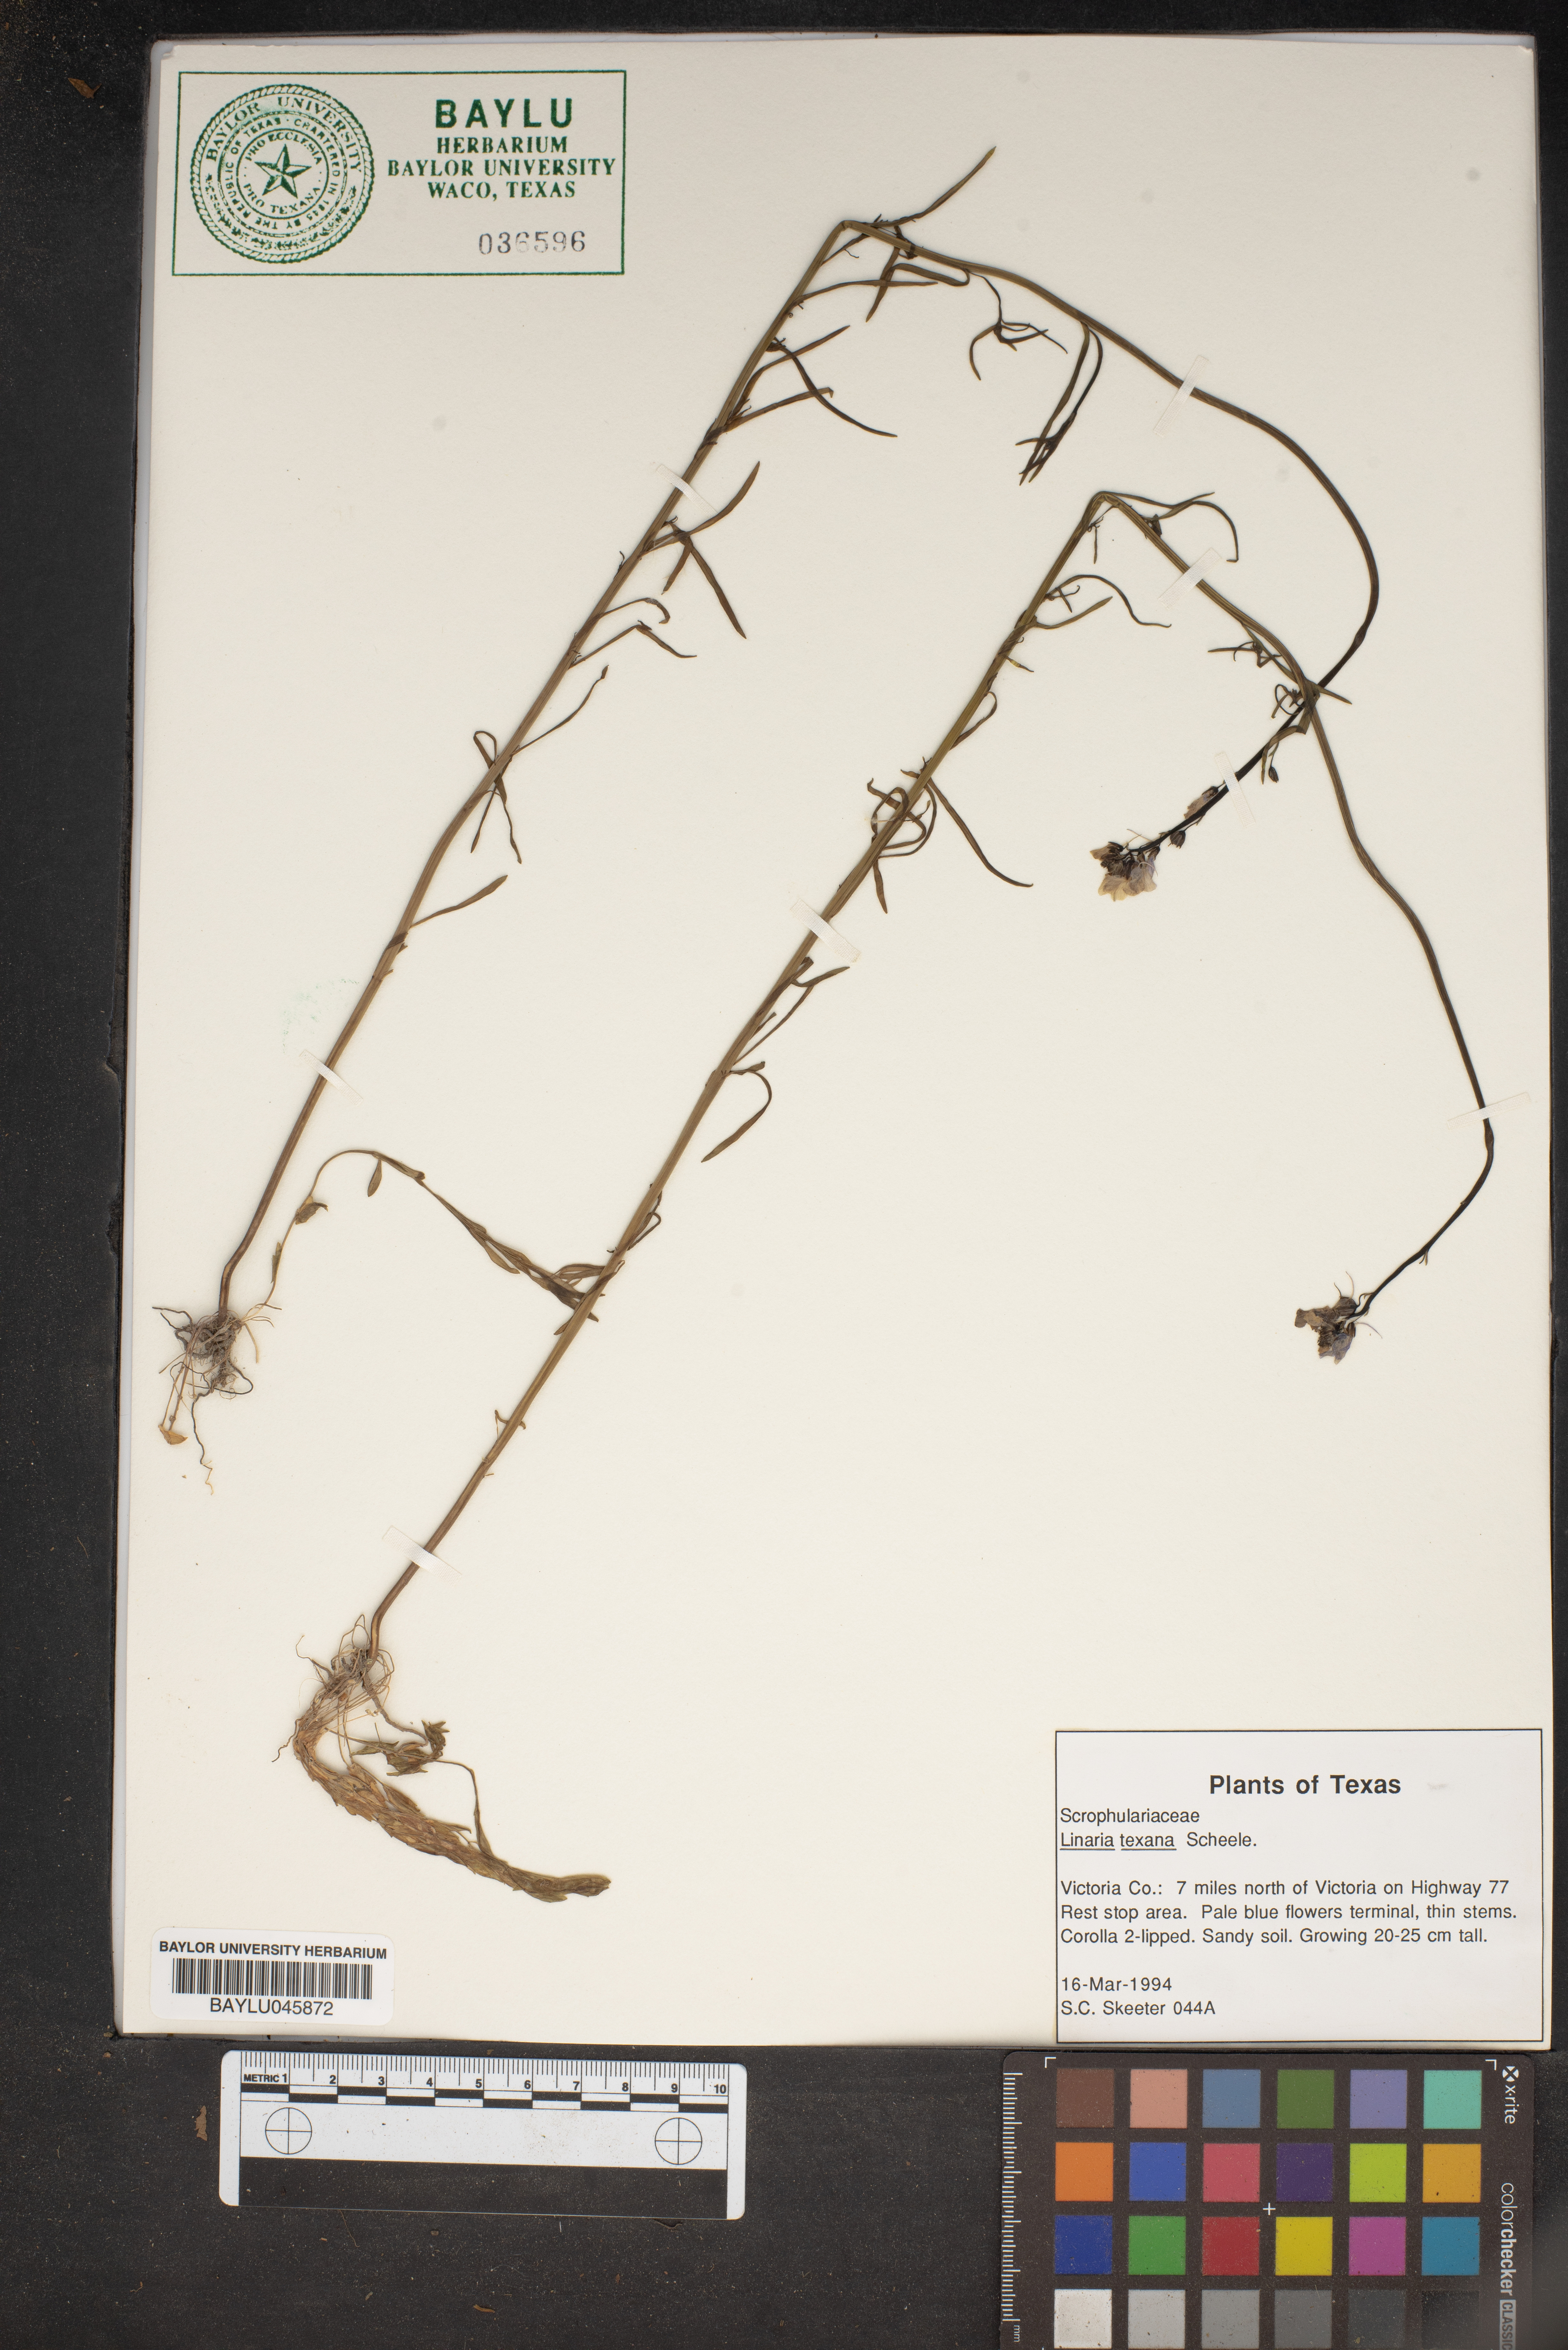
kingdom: Plantae
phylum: Tracheophyta
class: Magnoliopsida
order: Lamiales
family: Plantaginaceae
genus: Nuttallanthus
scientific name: Nuttallanthus texanus
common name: Texas toadflax
